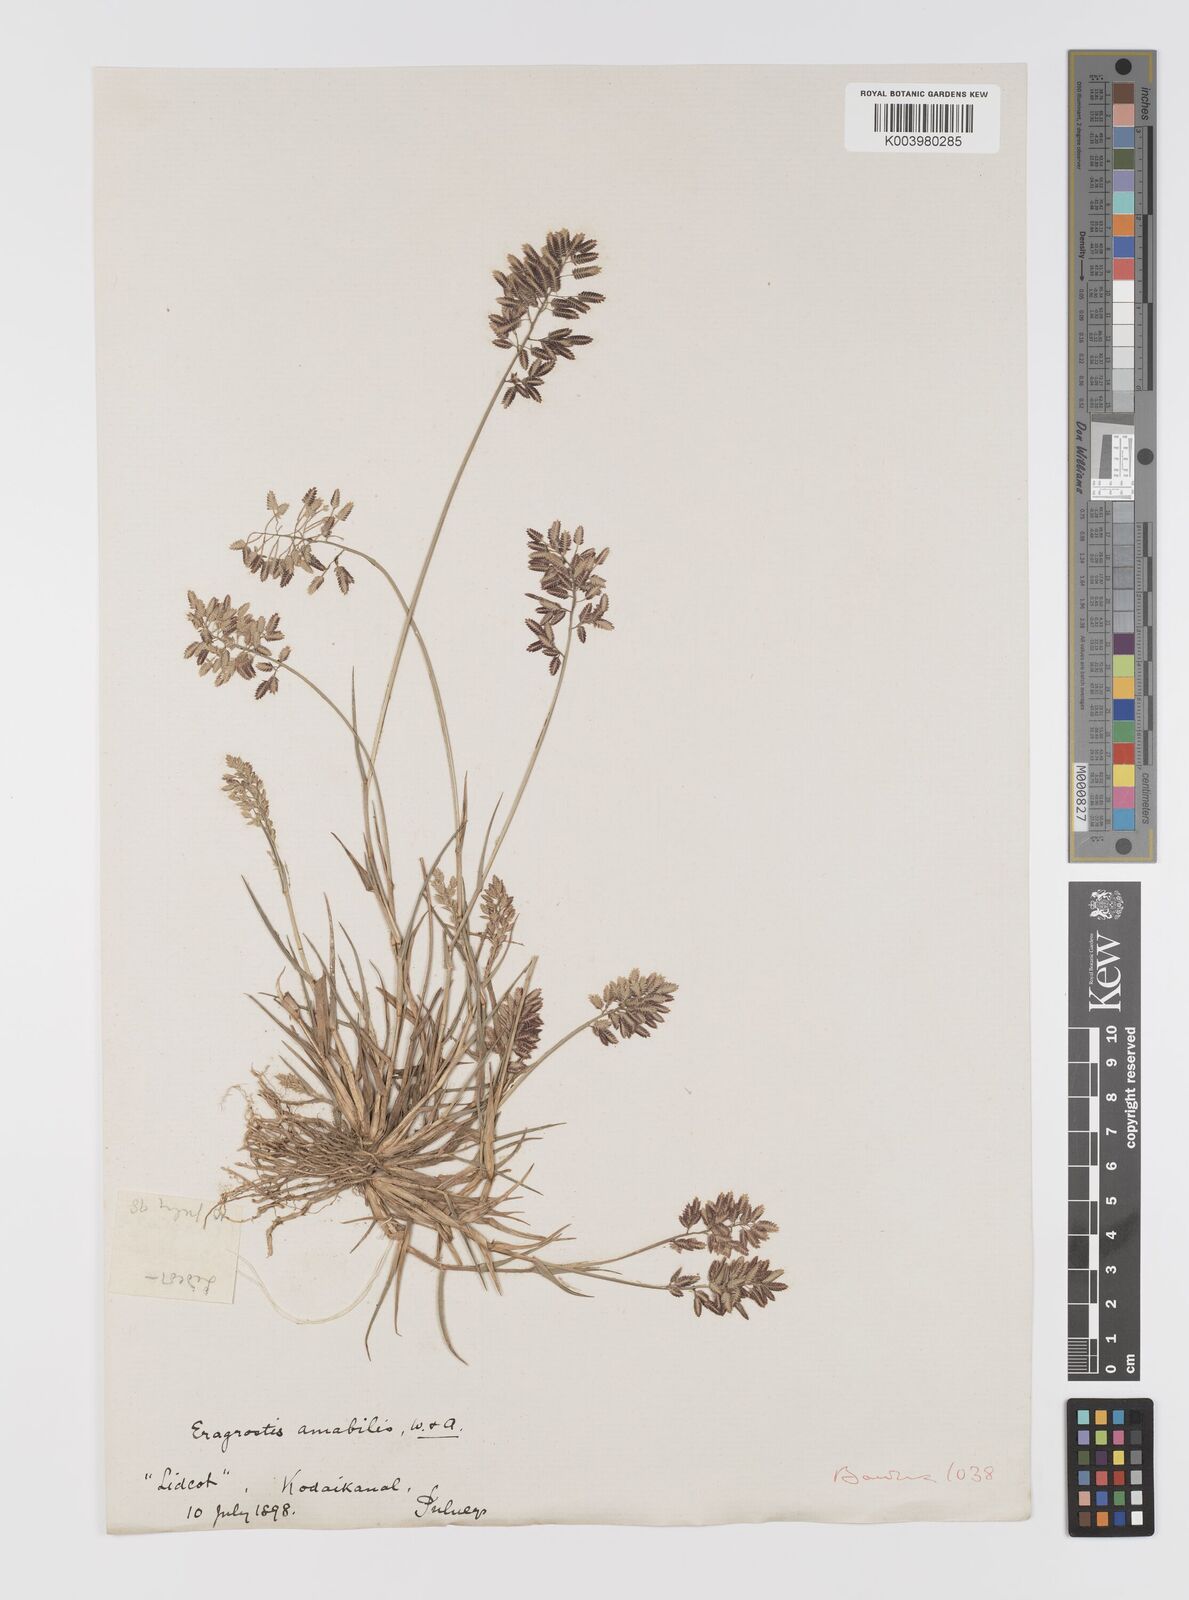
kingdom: Plantae
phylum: Tracheophyta
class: Liliopsida
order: Poales
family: Poaceae
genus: Eragrostis
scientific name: Eragrostis unioloides
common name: Chinese lovegrass
